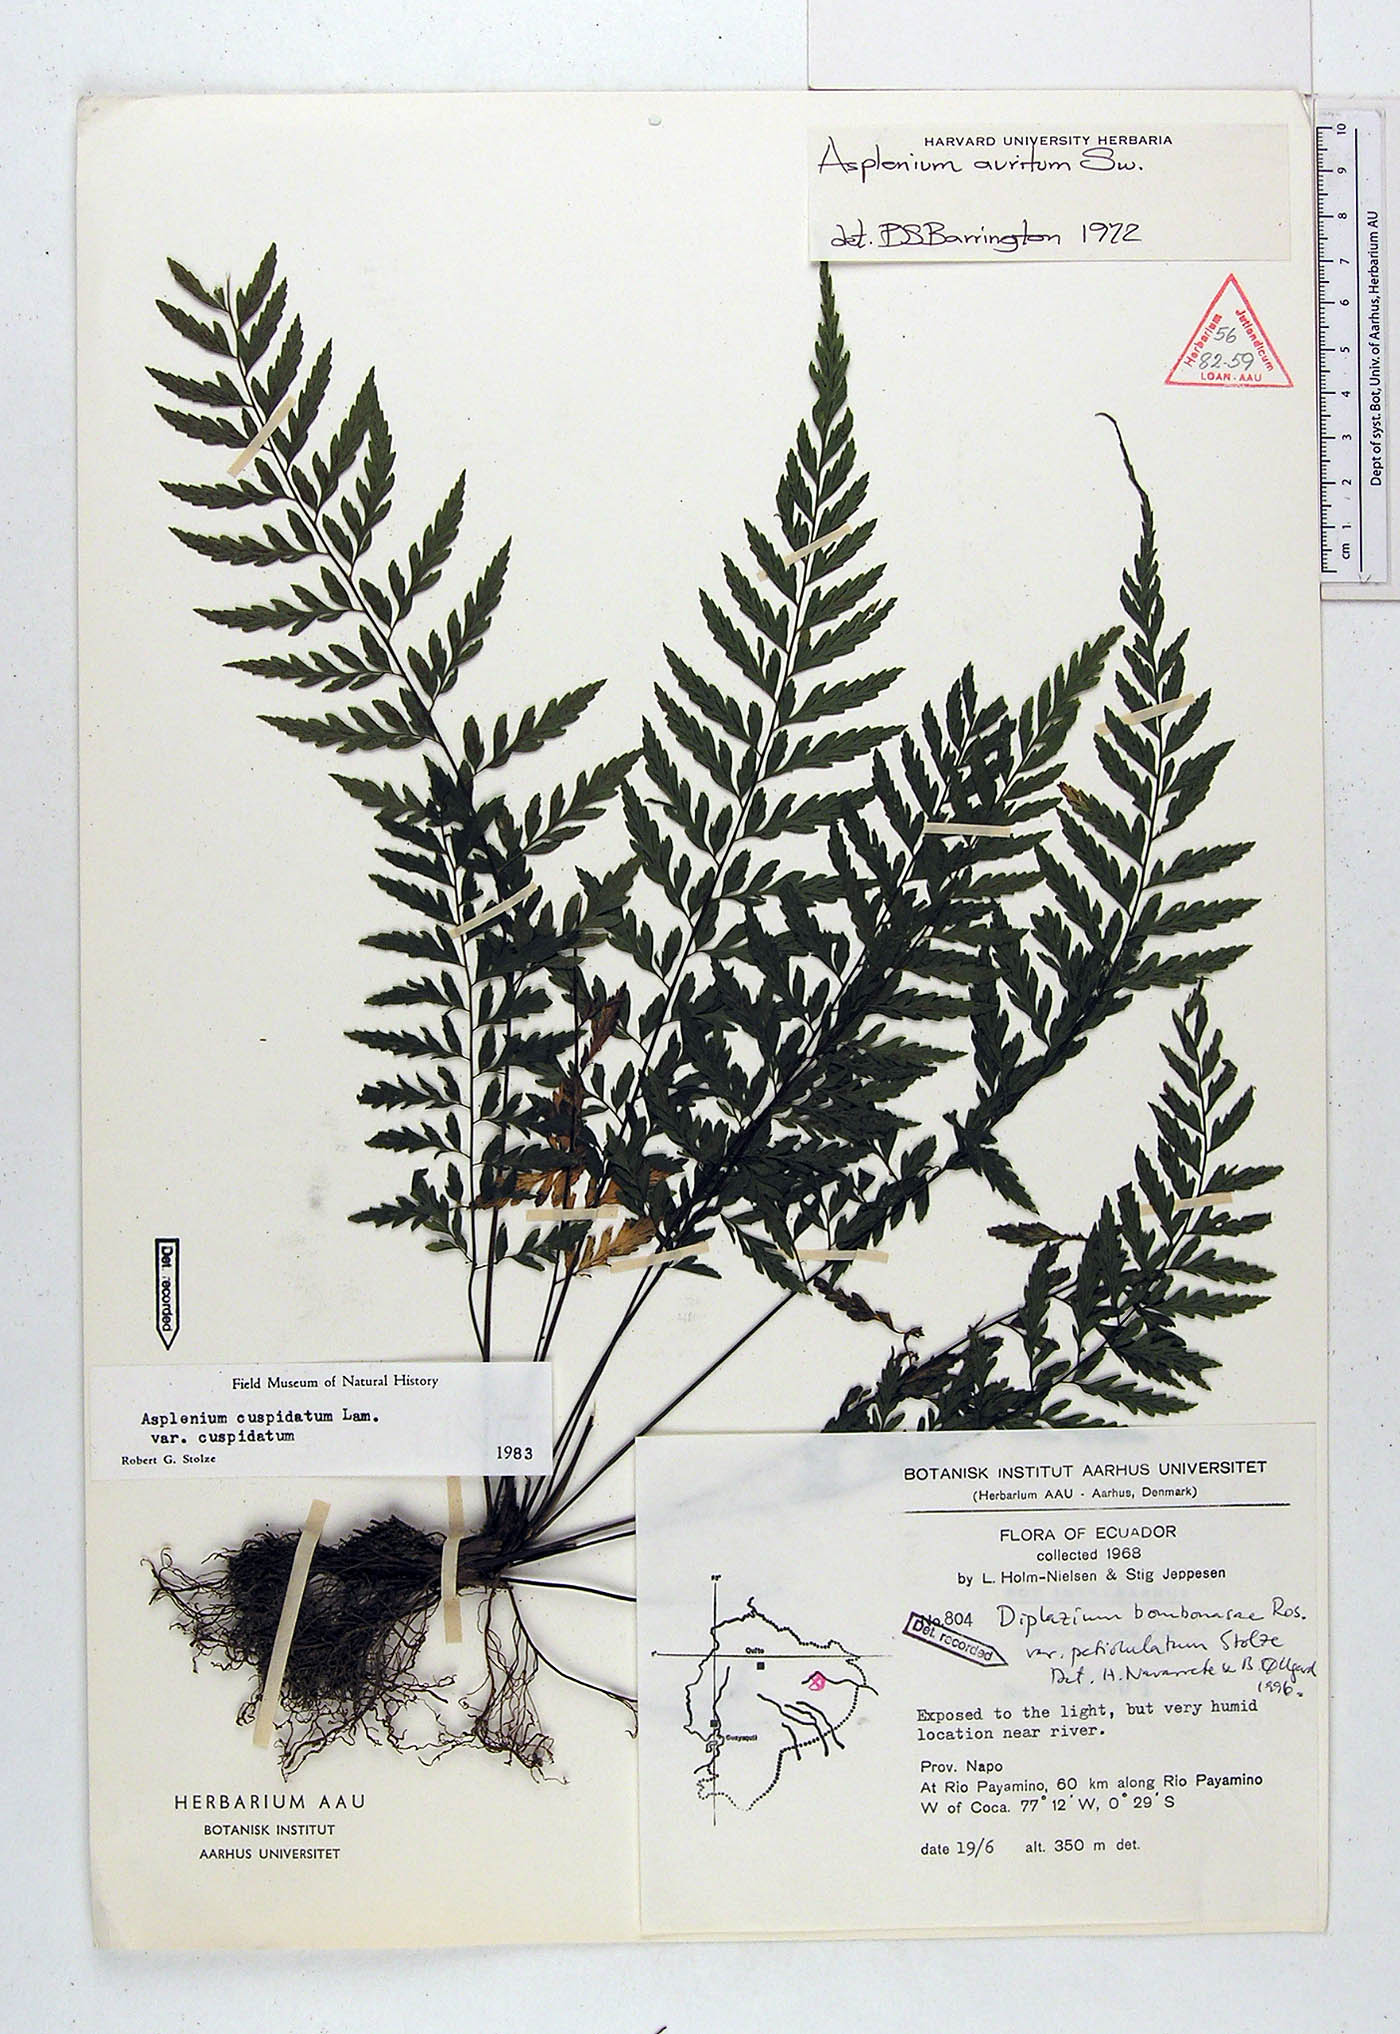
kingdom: Plantae
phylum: Tracheophyta
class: Polypodiopsida
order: Polypodiales
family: Athyriaceae
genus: Diplazium
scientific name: Diplazium petiolulatum
